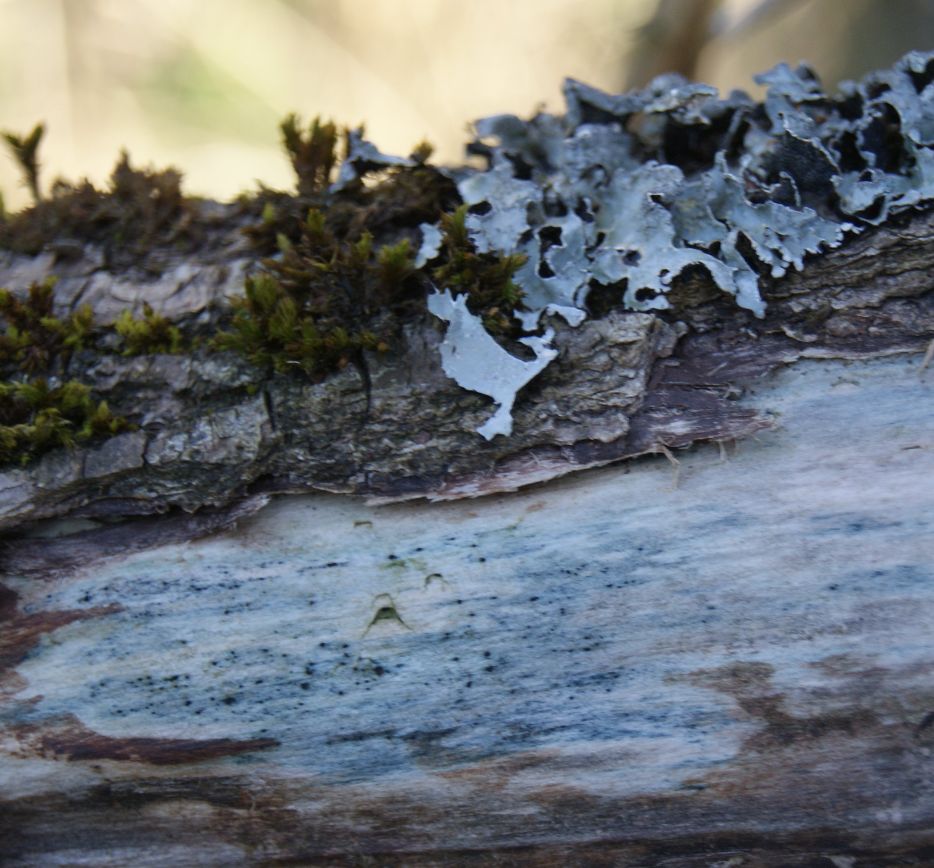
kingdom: Fungi
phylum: Ascomycota
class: Leotiomycetes
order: Helotiales
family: Helotiaceae
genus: Durella
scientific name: Durella atrocyanea
